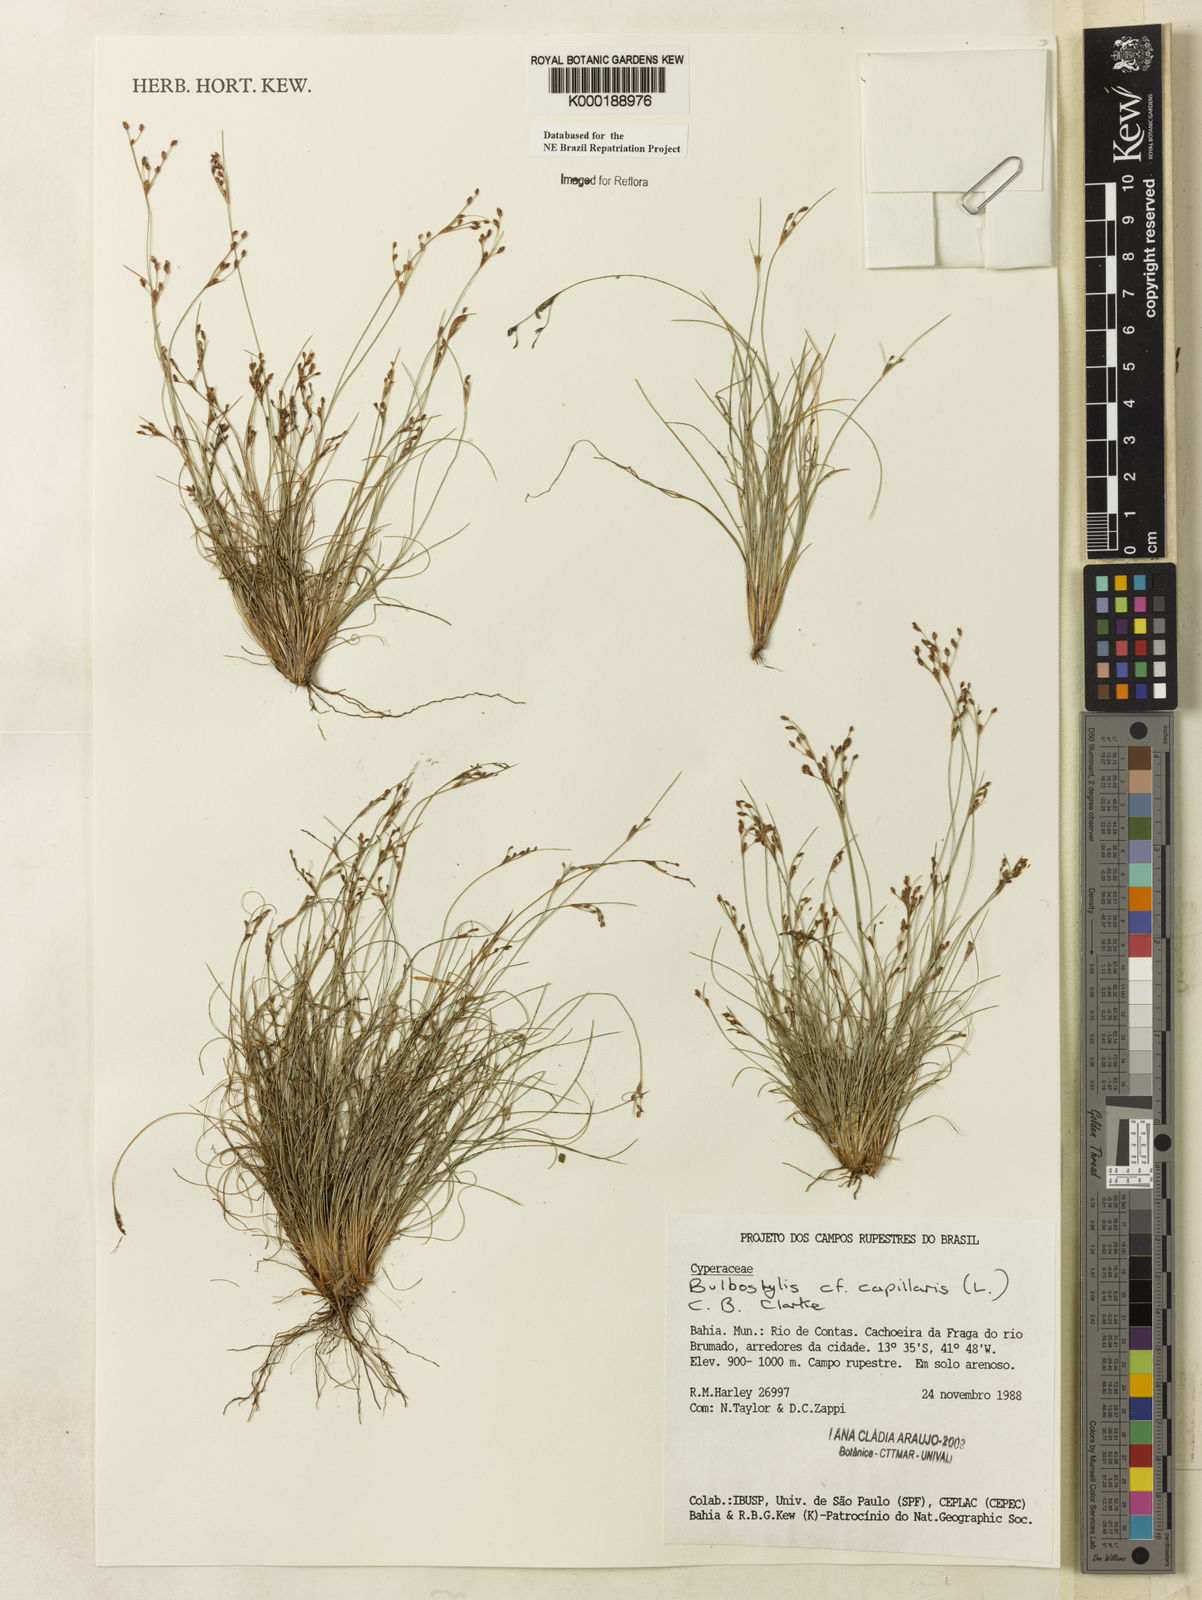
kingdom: Plantae
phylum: Tracheophyta
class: Liliopsida
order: Poales
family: Cyperaceae
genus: Bulbostylis
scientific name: Bulbostylis capillaris
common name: Densetuft hairsedge
